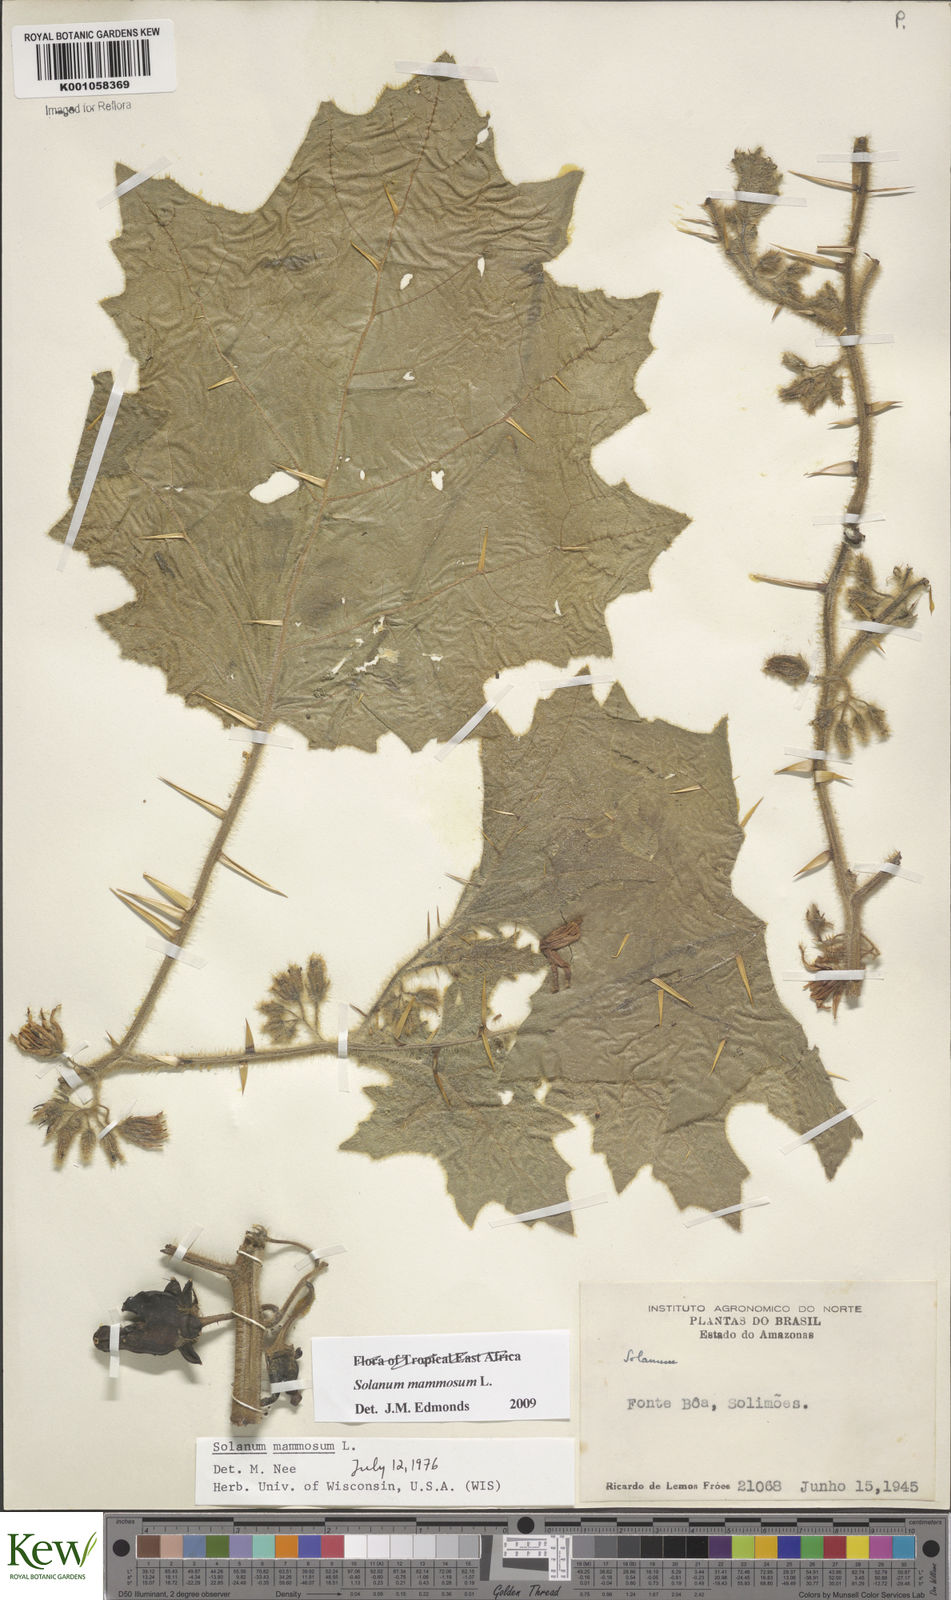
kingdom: Plantae
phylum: Tracheophyta
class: Magnoliopsida
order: Solanales
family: Solanaceae
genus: Solanum
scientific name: Solanum mammosum
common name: Nipple fruit
